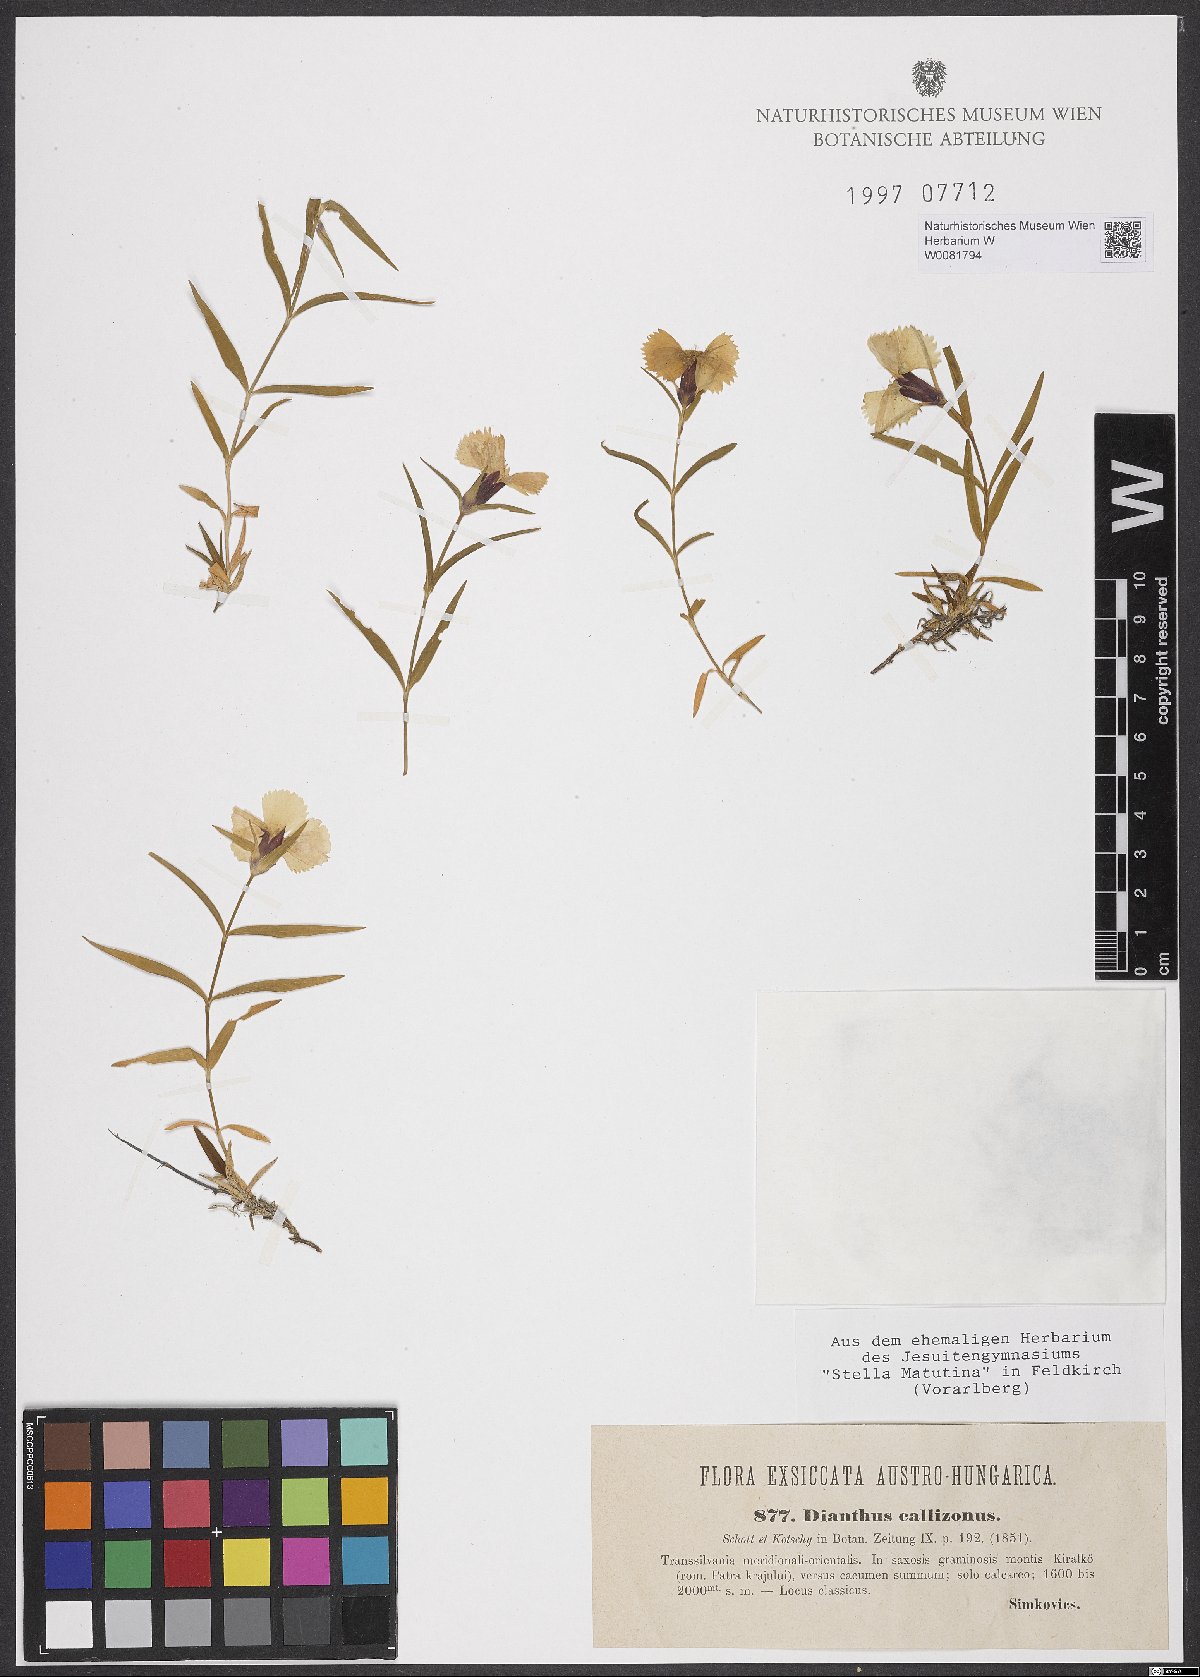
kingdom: Plantae
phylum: Tracheophyta
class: Magnoliopsida
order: Caryophyllales
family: Caryophyllaceae
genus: Dianthus
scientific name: Dianthus callizonus
